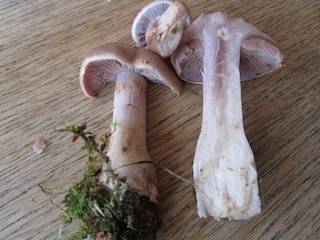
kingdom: Fungi
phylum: Basidiomycota
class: Agaricomycetes
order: Agaricales
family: Cortinariaceae
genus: Cortinarius
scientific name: Cortinarius caninus
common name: gran-slørhat
